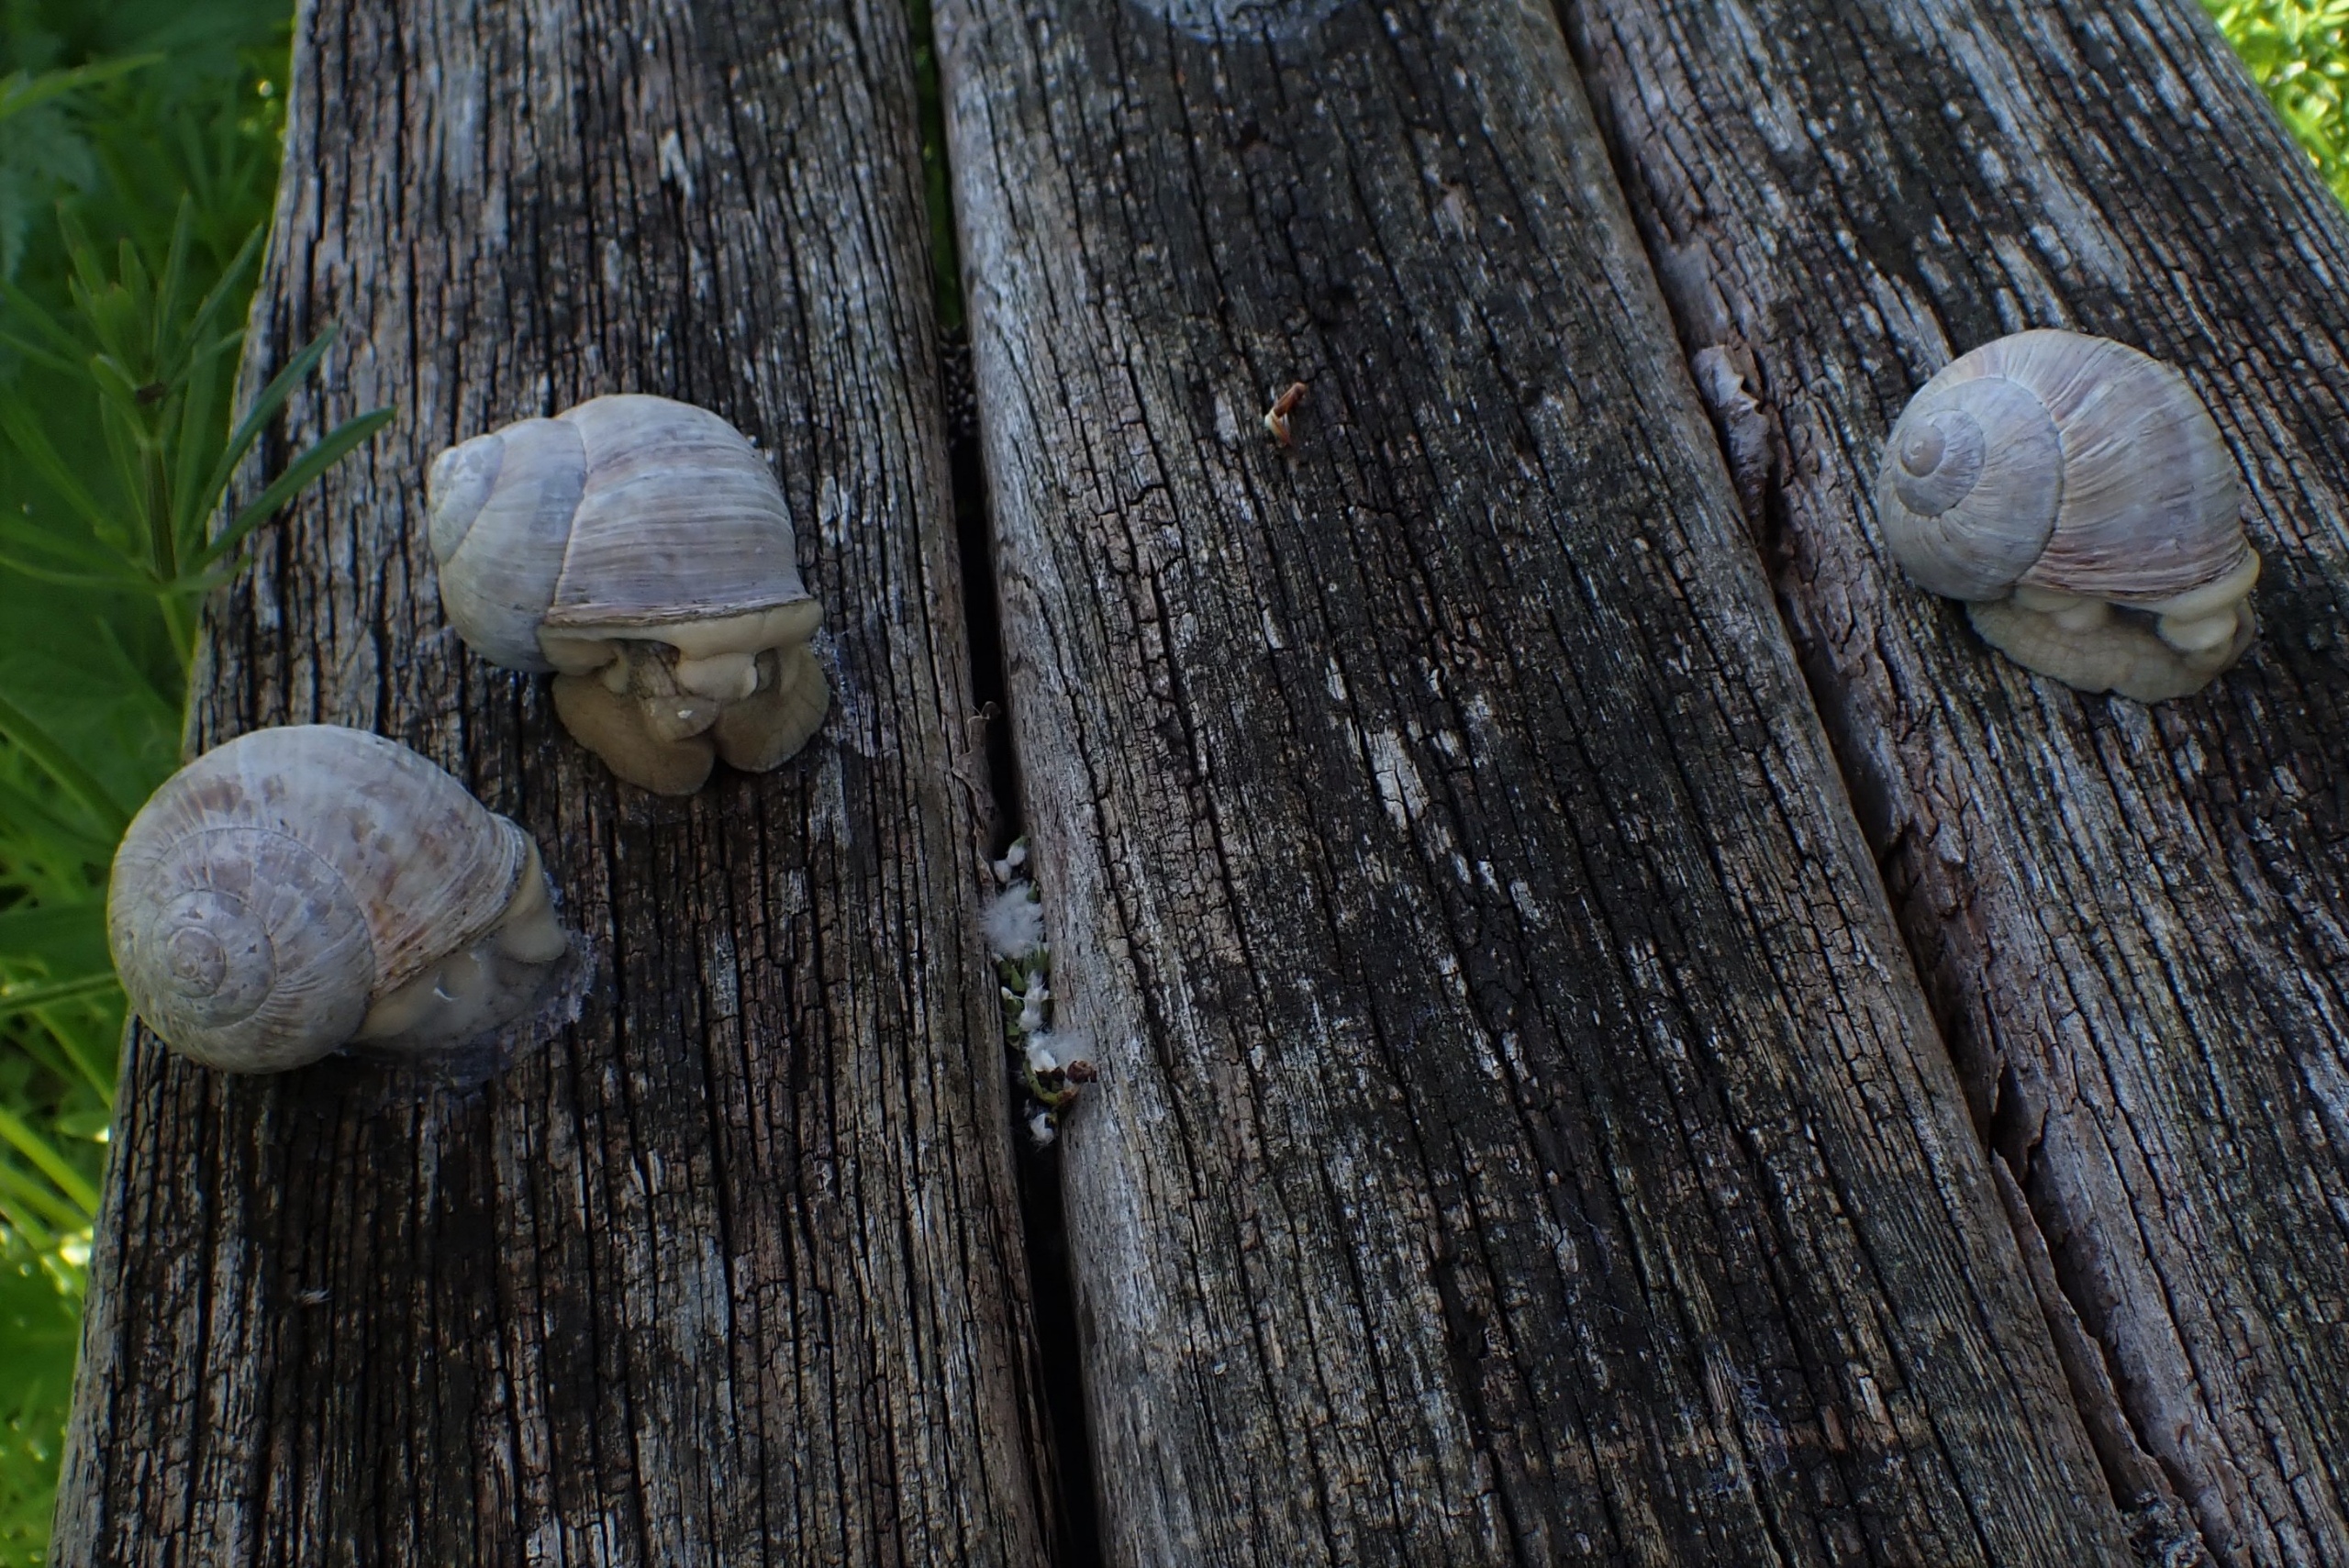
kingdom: Animalia
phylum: Mollusca
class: Gastropoda
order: Stylommatophora
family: Helicidae
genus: Helix
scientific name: Helix pomatia
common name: Vinbjergsnegl
